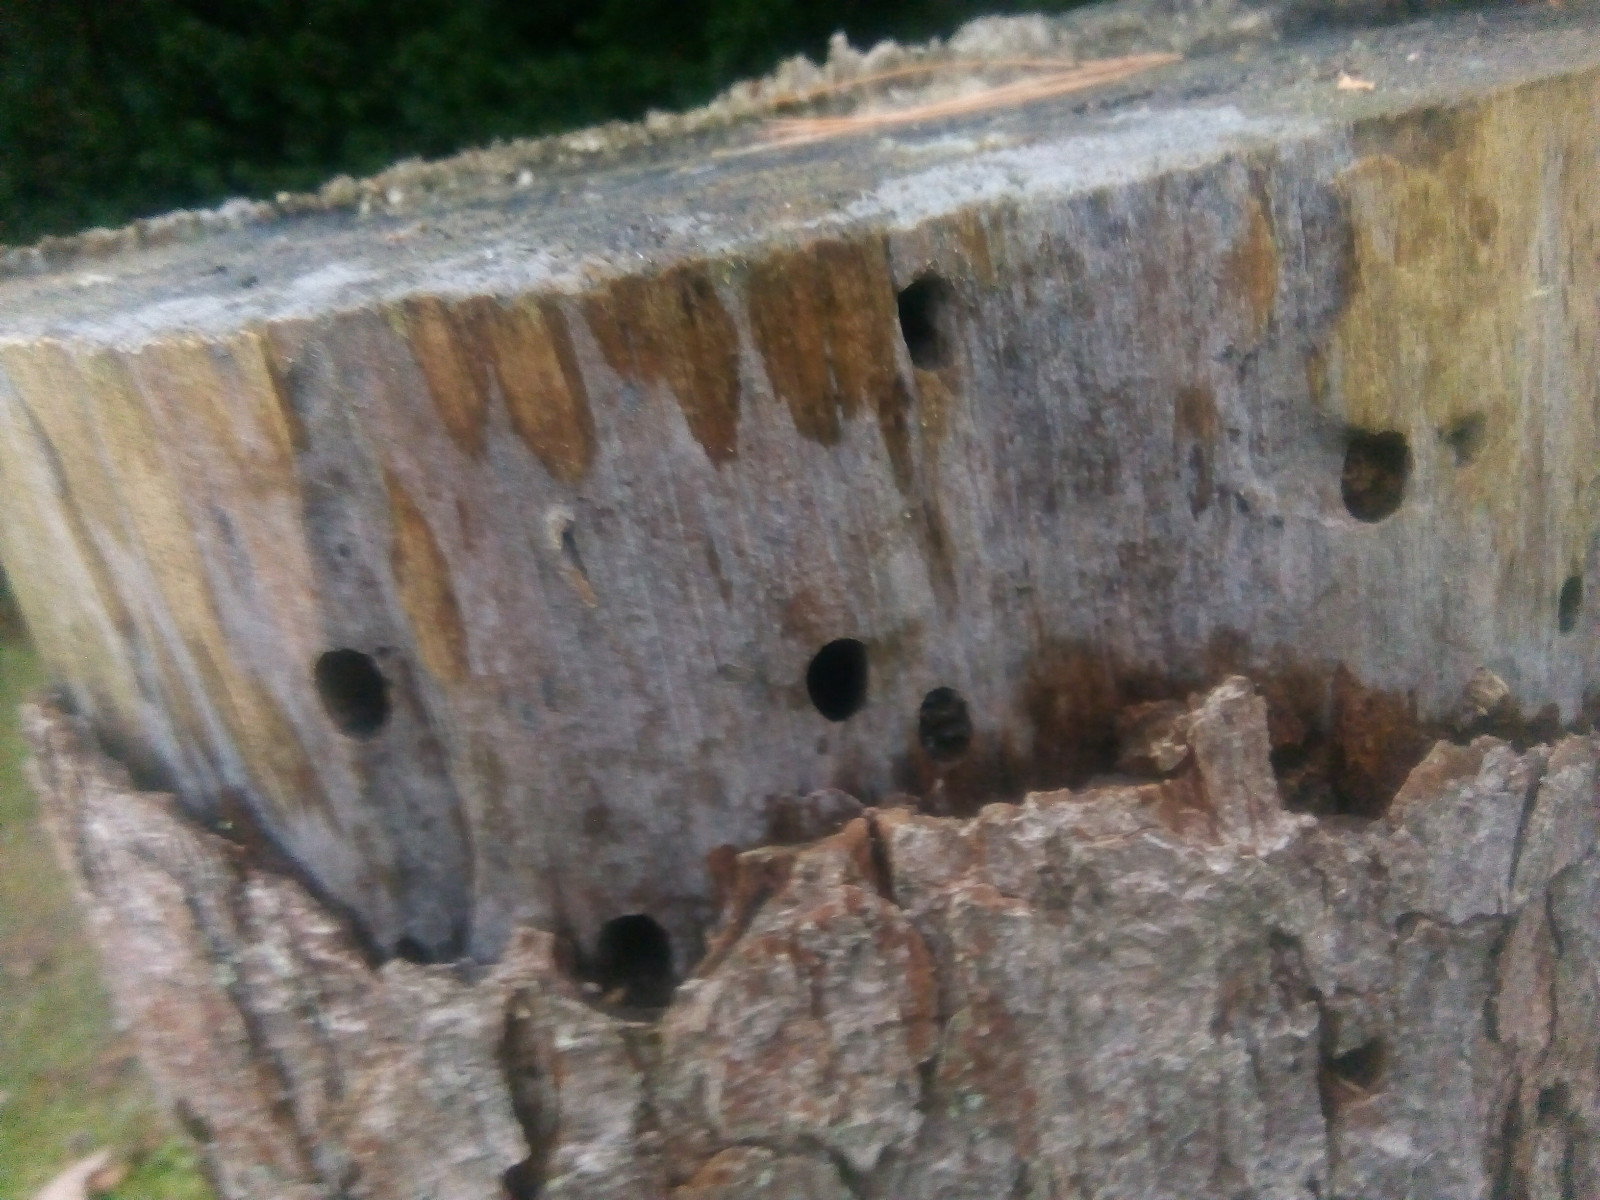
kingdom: Fungi
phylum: Basidiomycota
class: Atractiellomycetes
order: Atractiellales
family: Phleogenaceae
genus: Helicogloea
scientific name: Helicogloea subardosiaca
